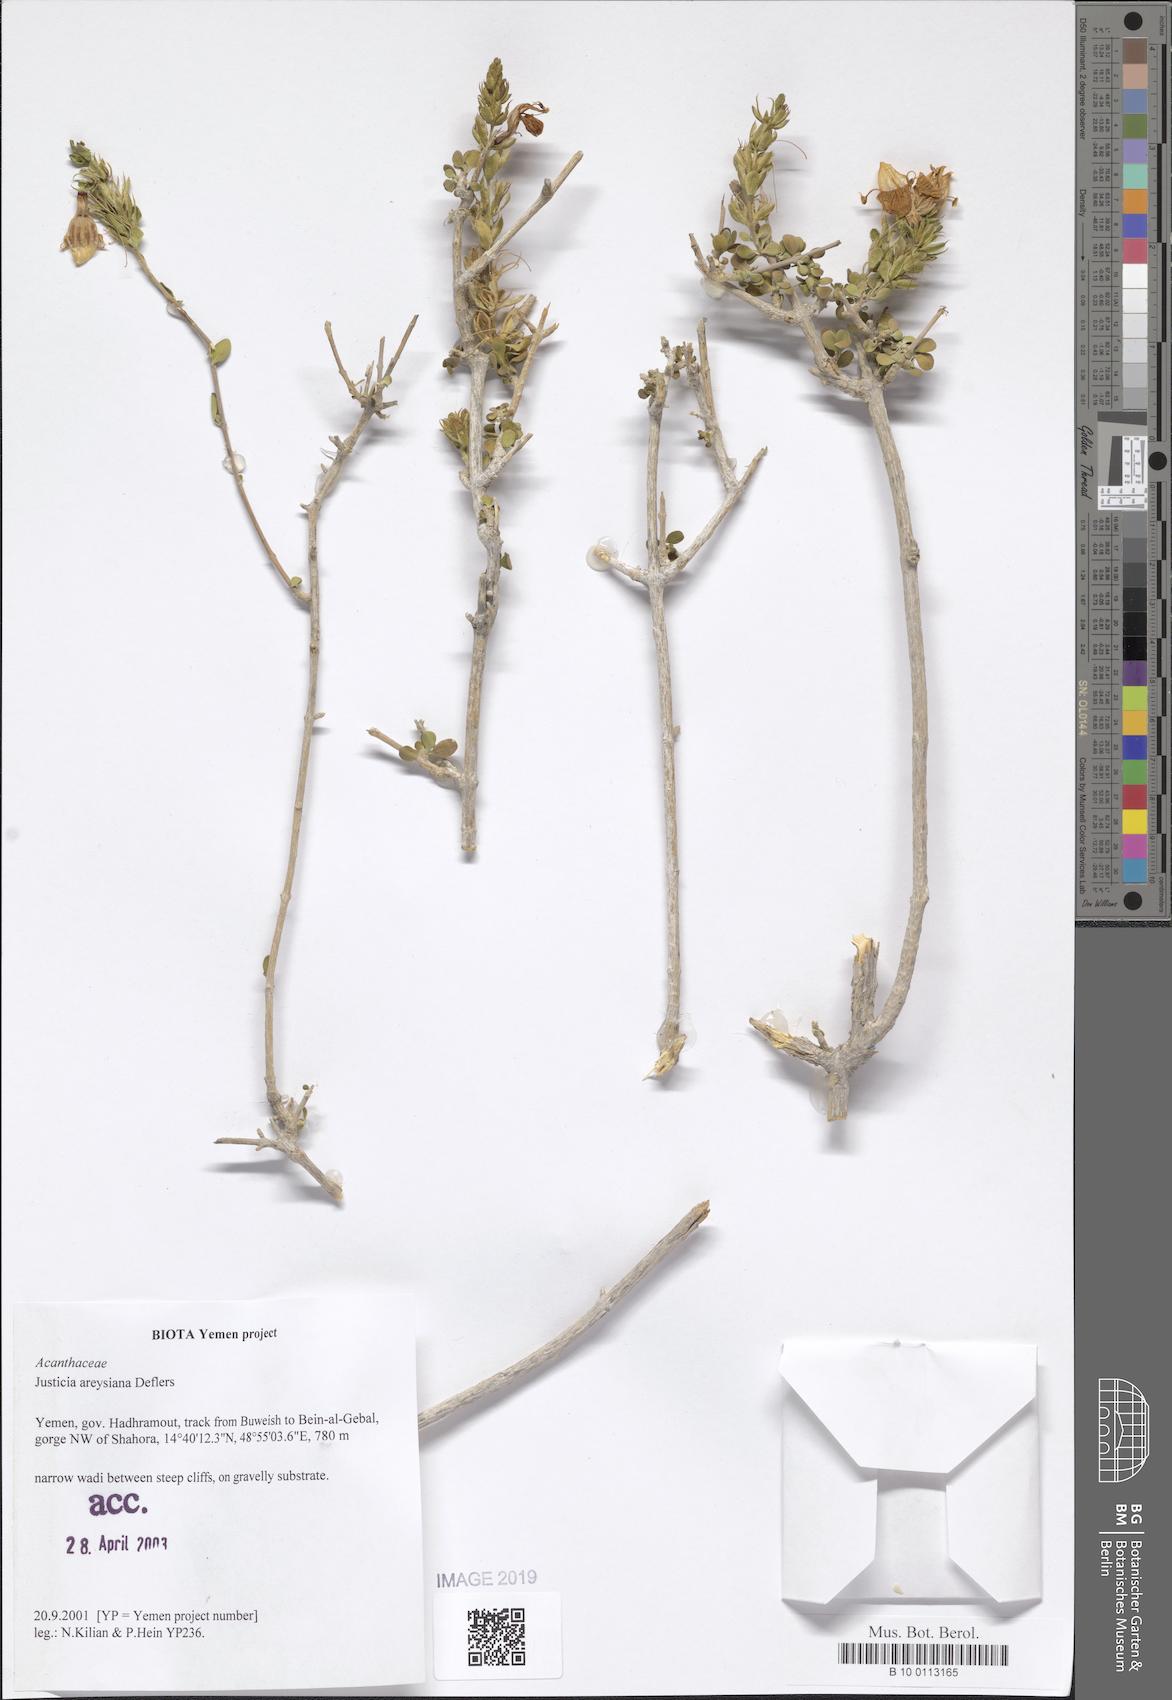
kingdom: Plantae
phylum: Tracheophyta
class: Magnoliopsida
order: Lamiales
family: Acanthaceae
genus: Justicia
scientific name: Justicia areysiana
